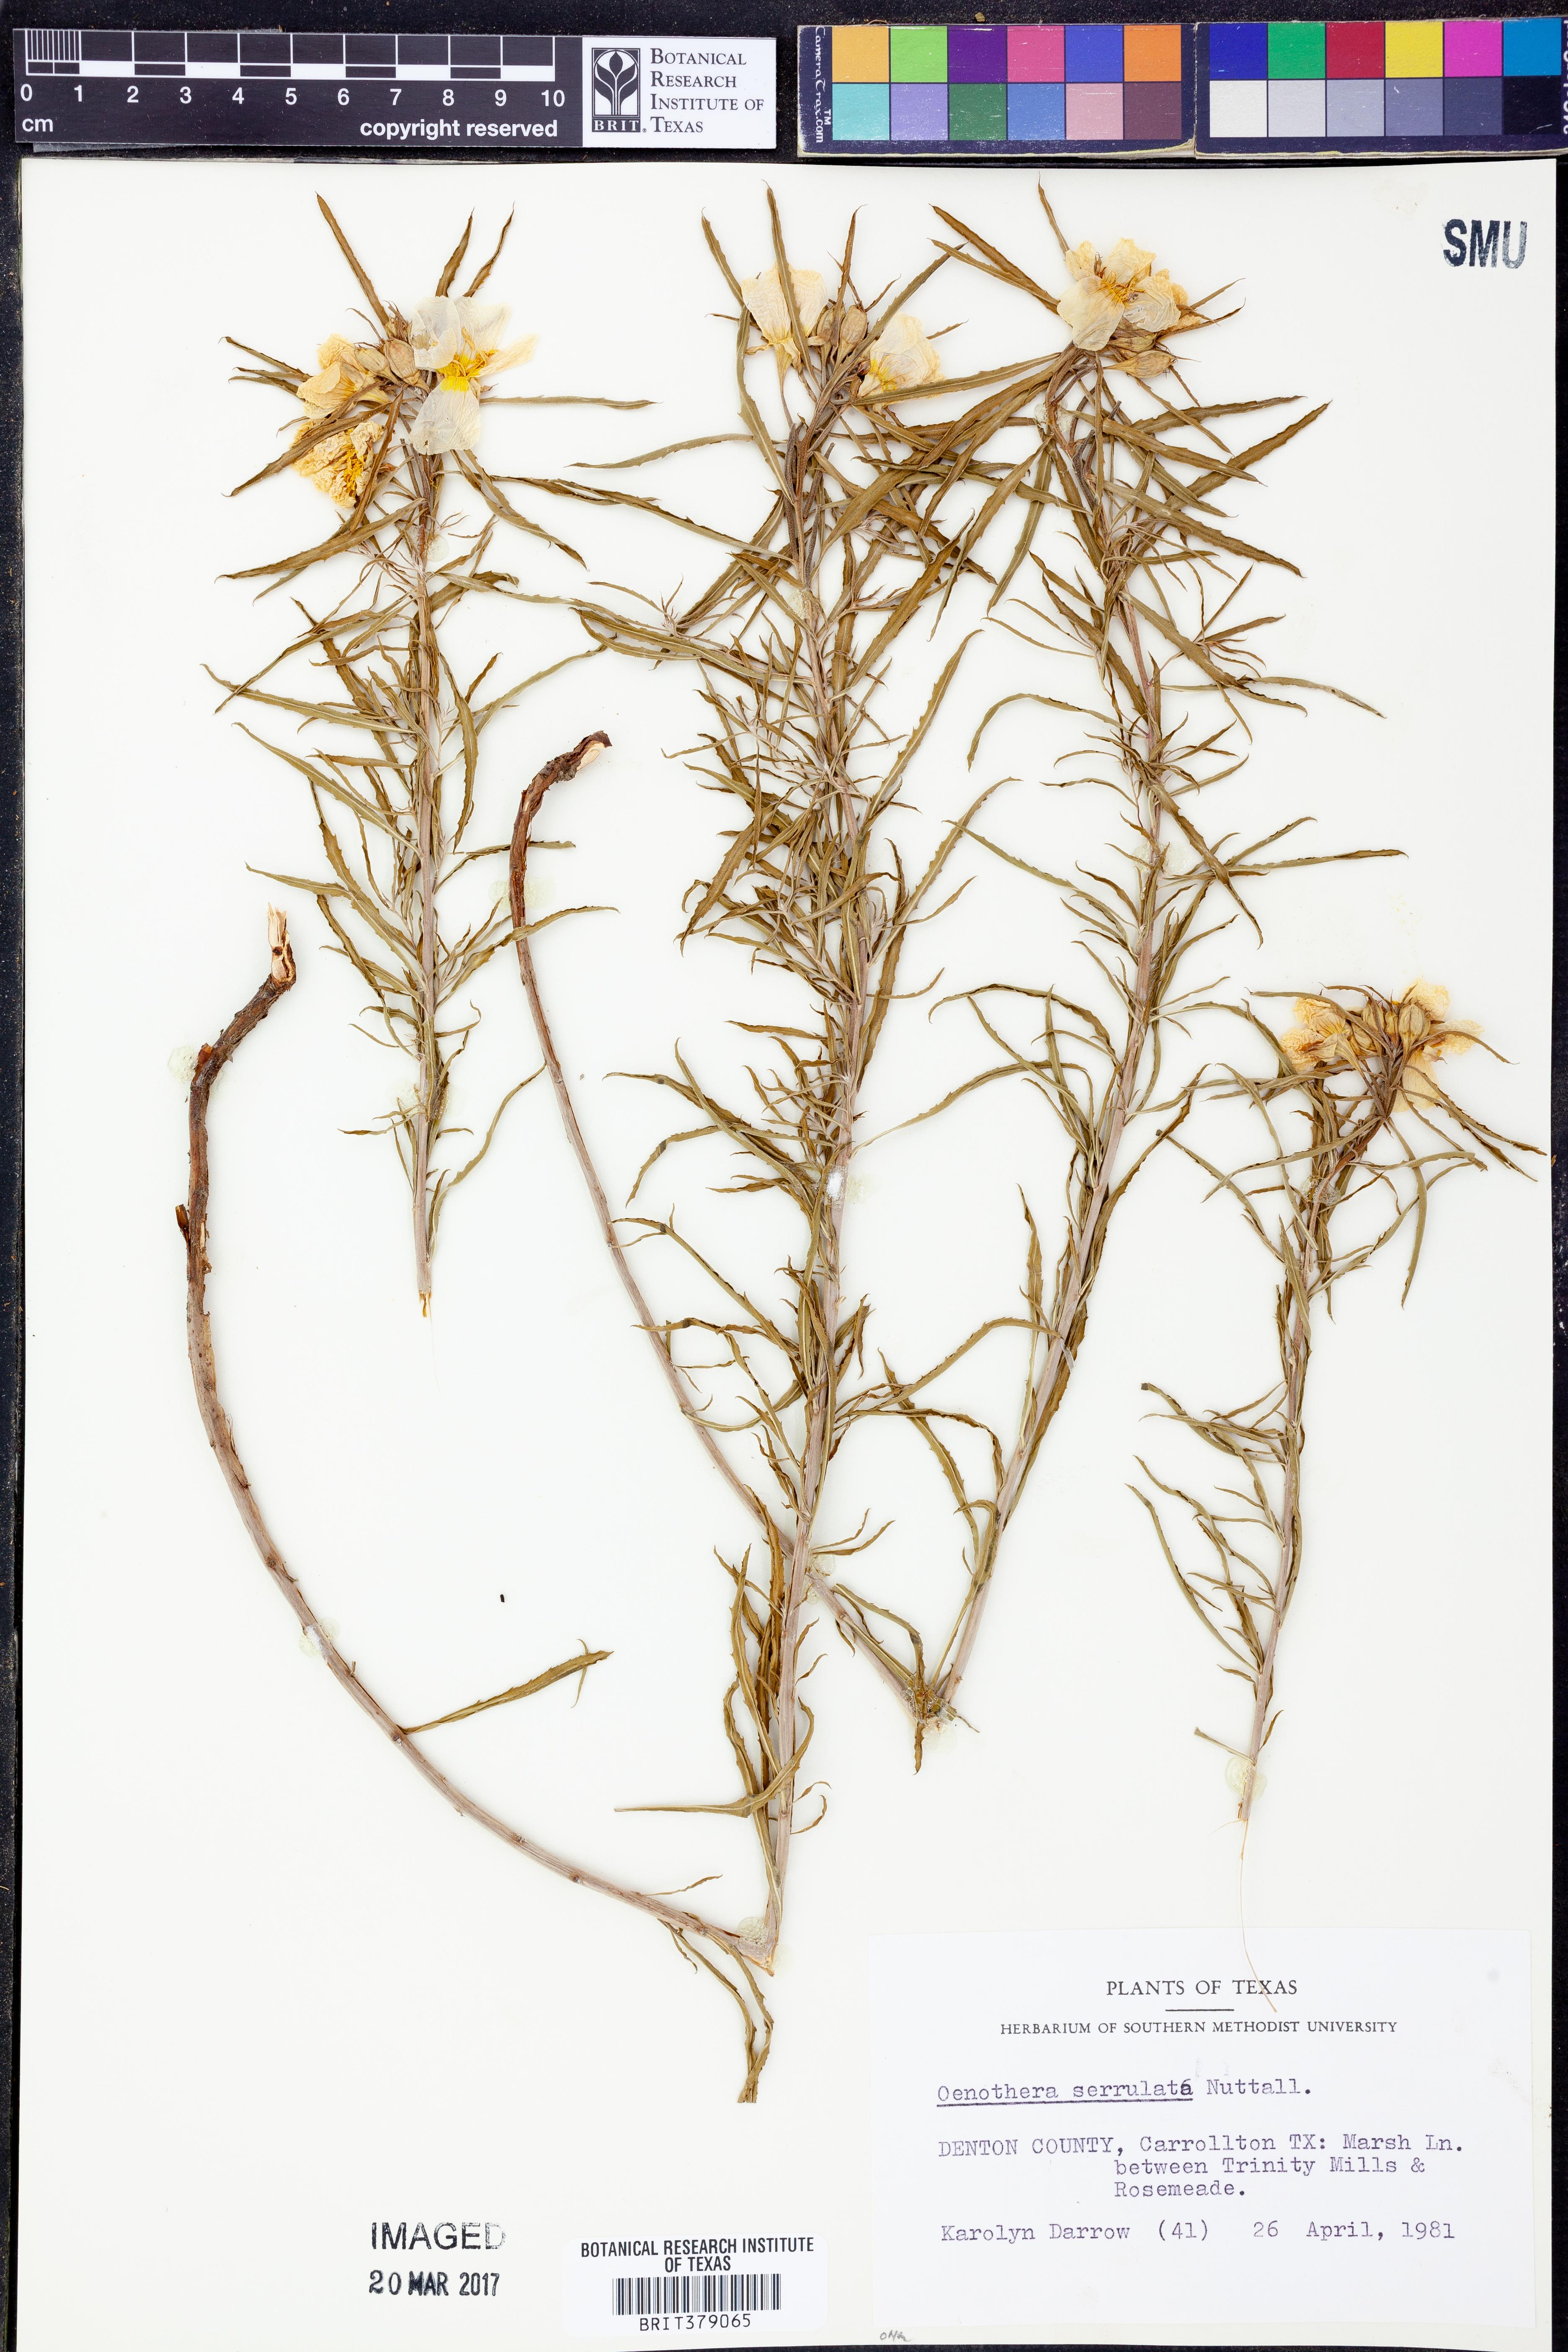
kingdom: Plantae
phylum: Tracheophyta
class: Magnoliopsida
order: Myrtales
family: Onagraceae
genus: Oenothera
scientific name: Oenothera serrulata
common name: Half-shrub calylophus
